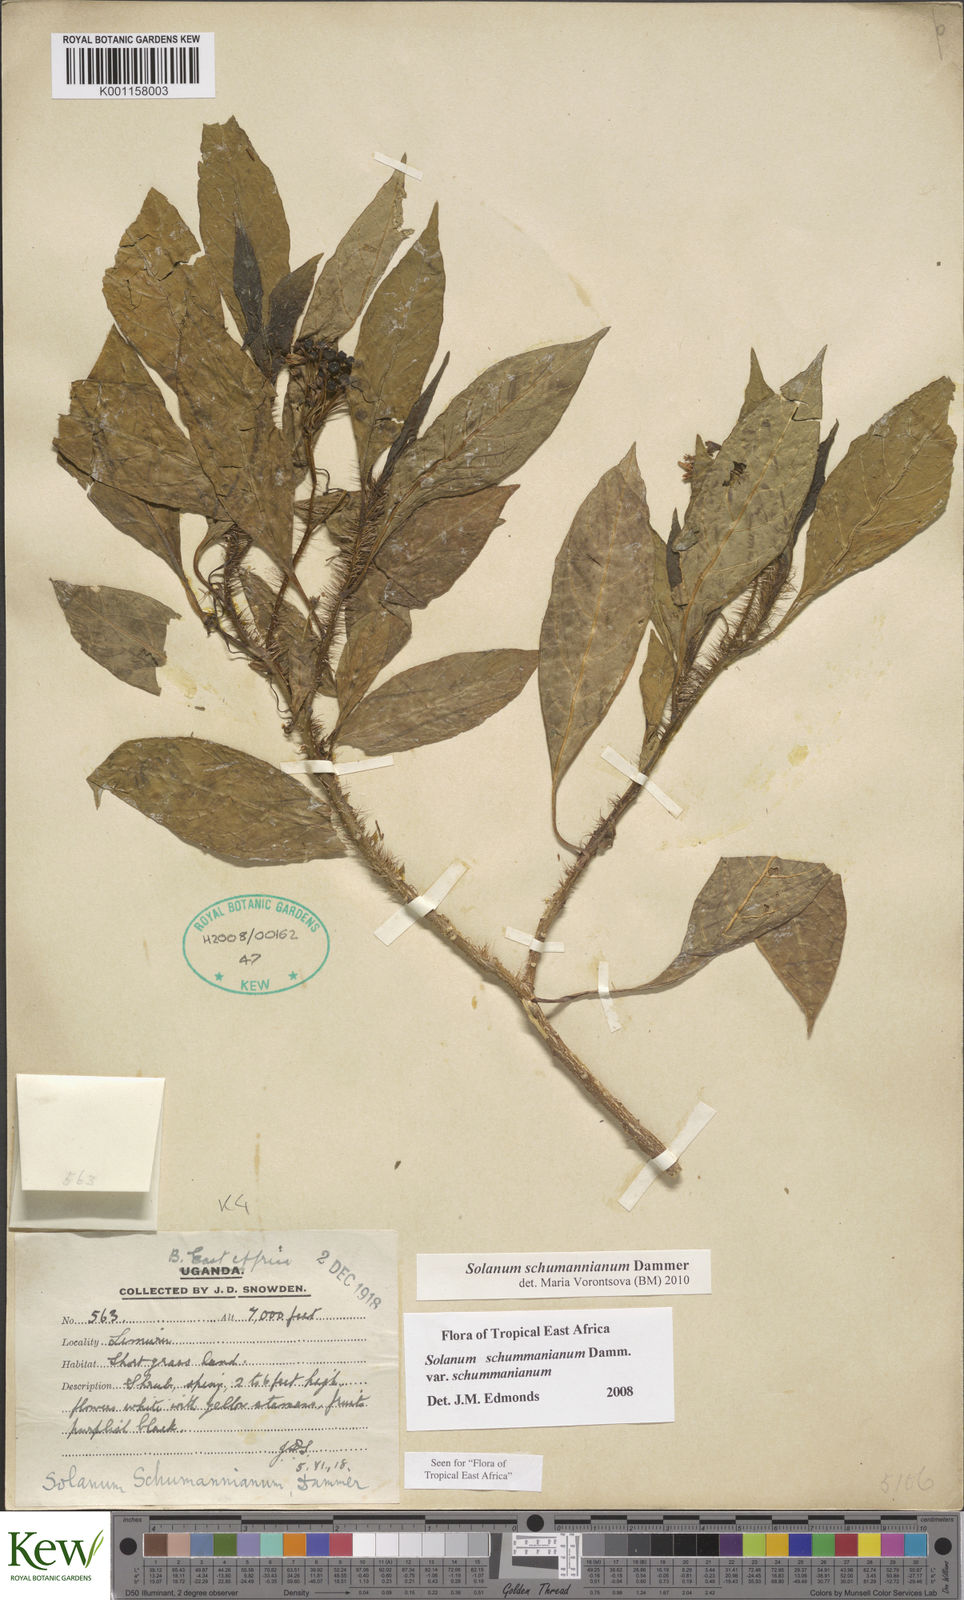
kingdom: Plantae
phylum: Tracheophyta
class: Magnoliopsida
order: Solanales
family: Solanaceae
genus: Solanum
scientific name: Solanum schumannianum
